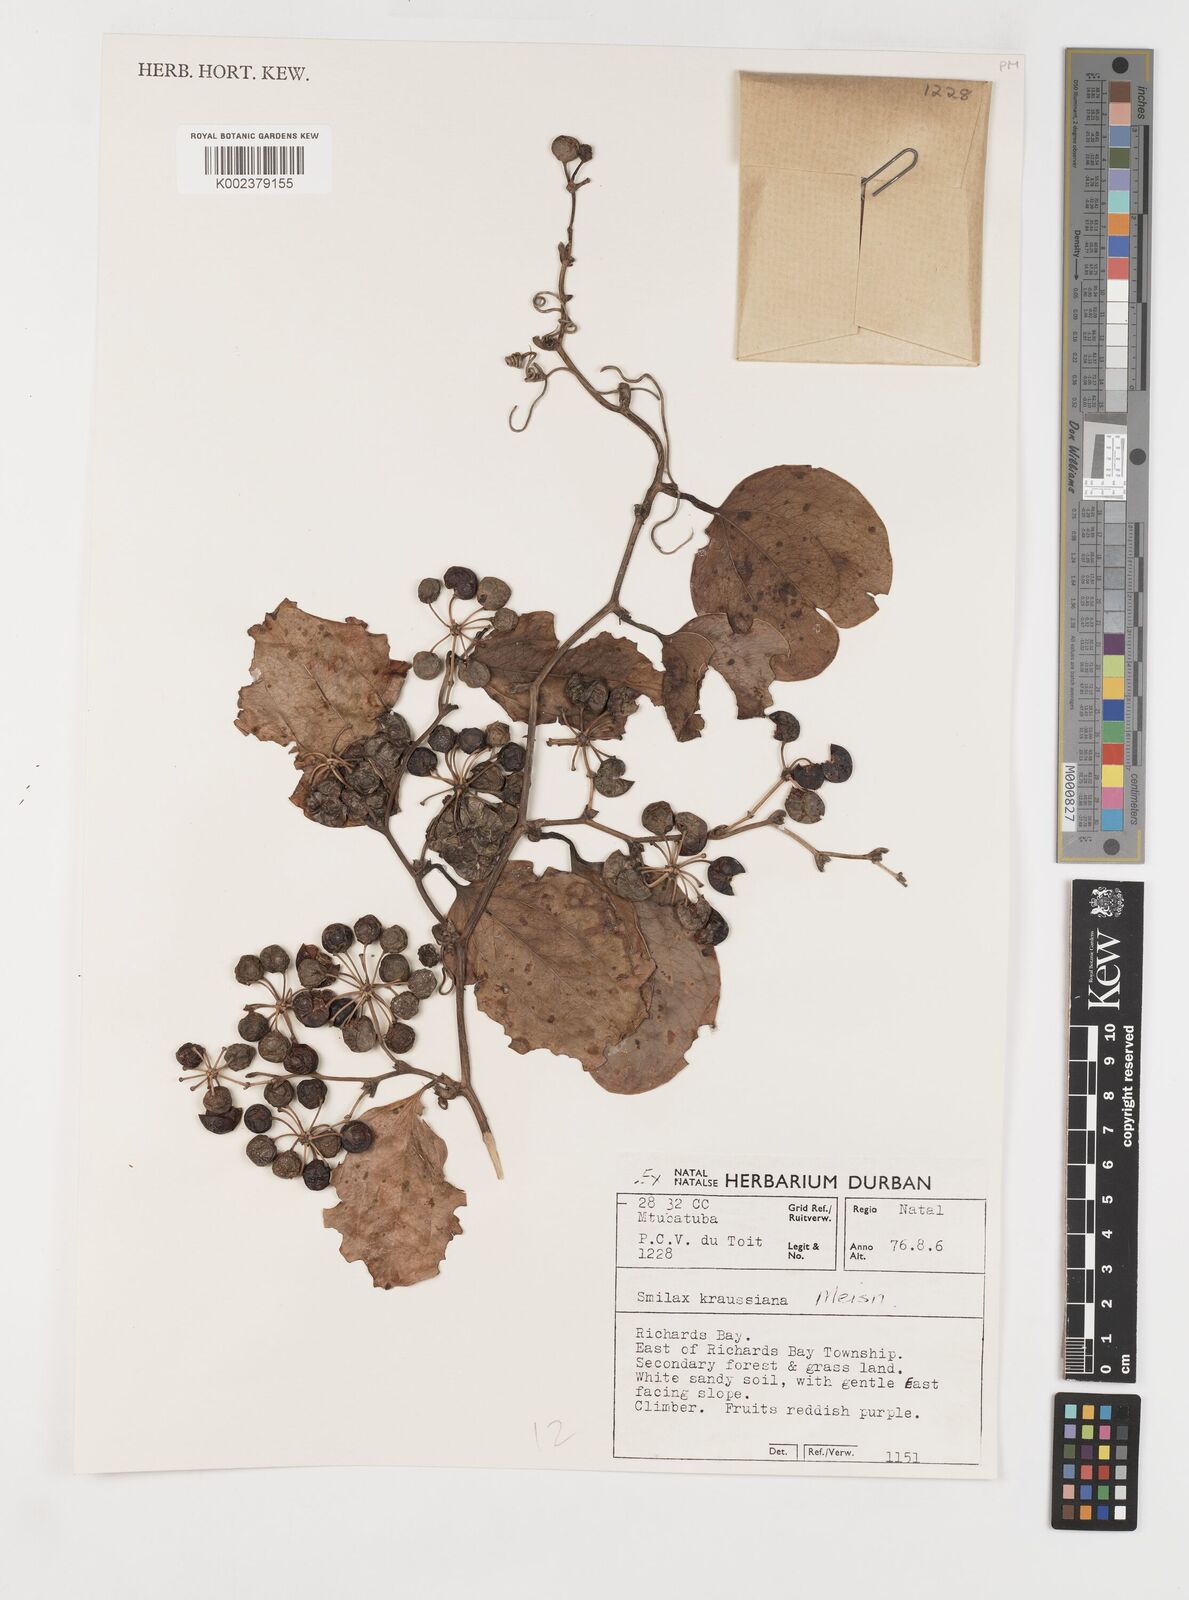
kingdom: Plantae
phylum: Tracheophyta
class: Liliopsida
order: Liliales
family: Smilacaceae
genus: Smilax
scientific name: Smilax anceps
